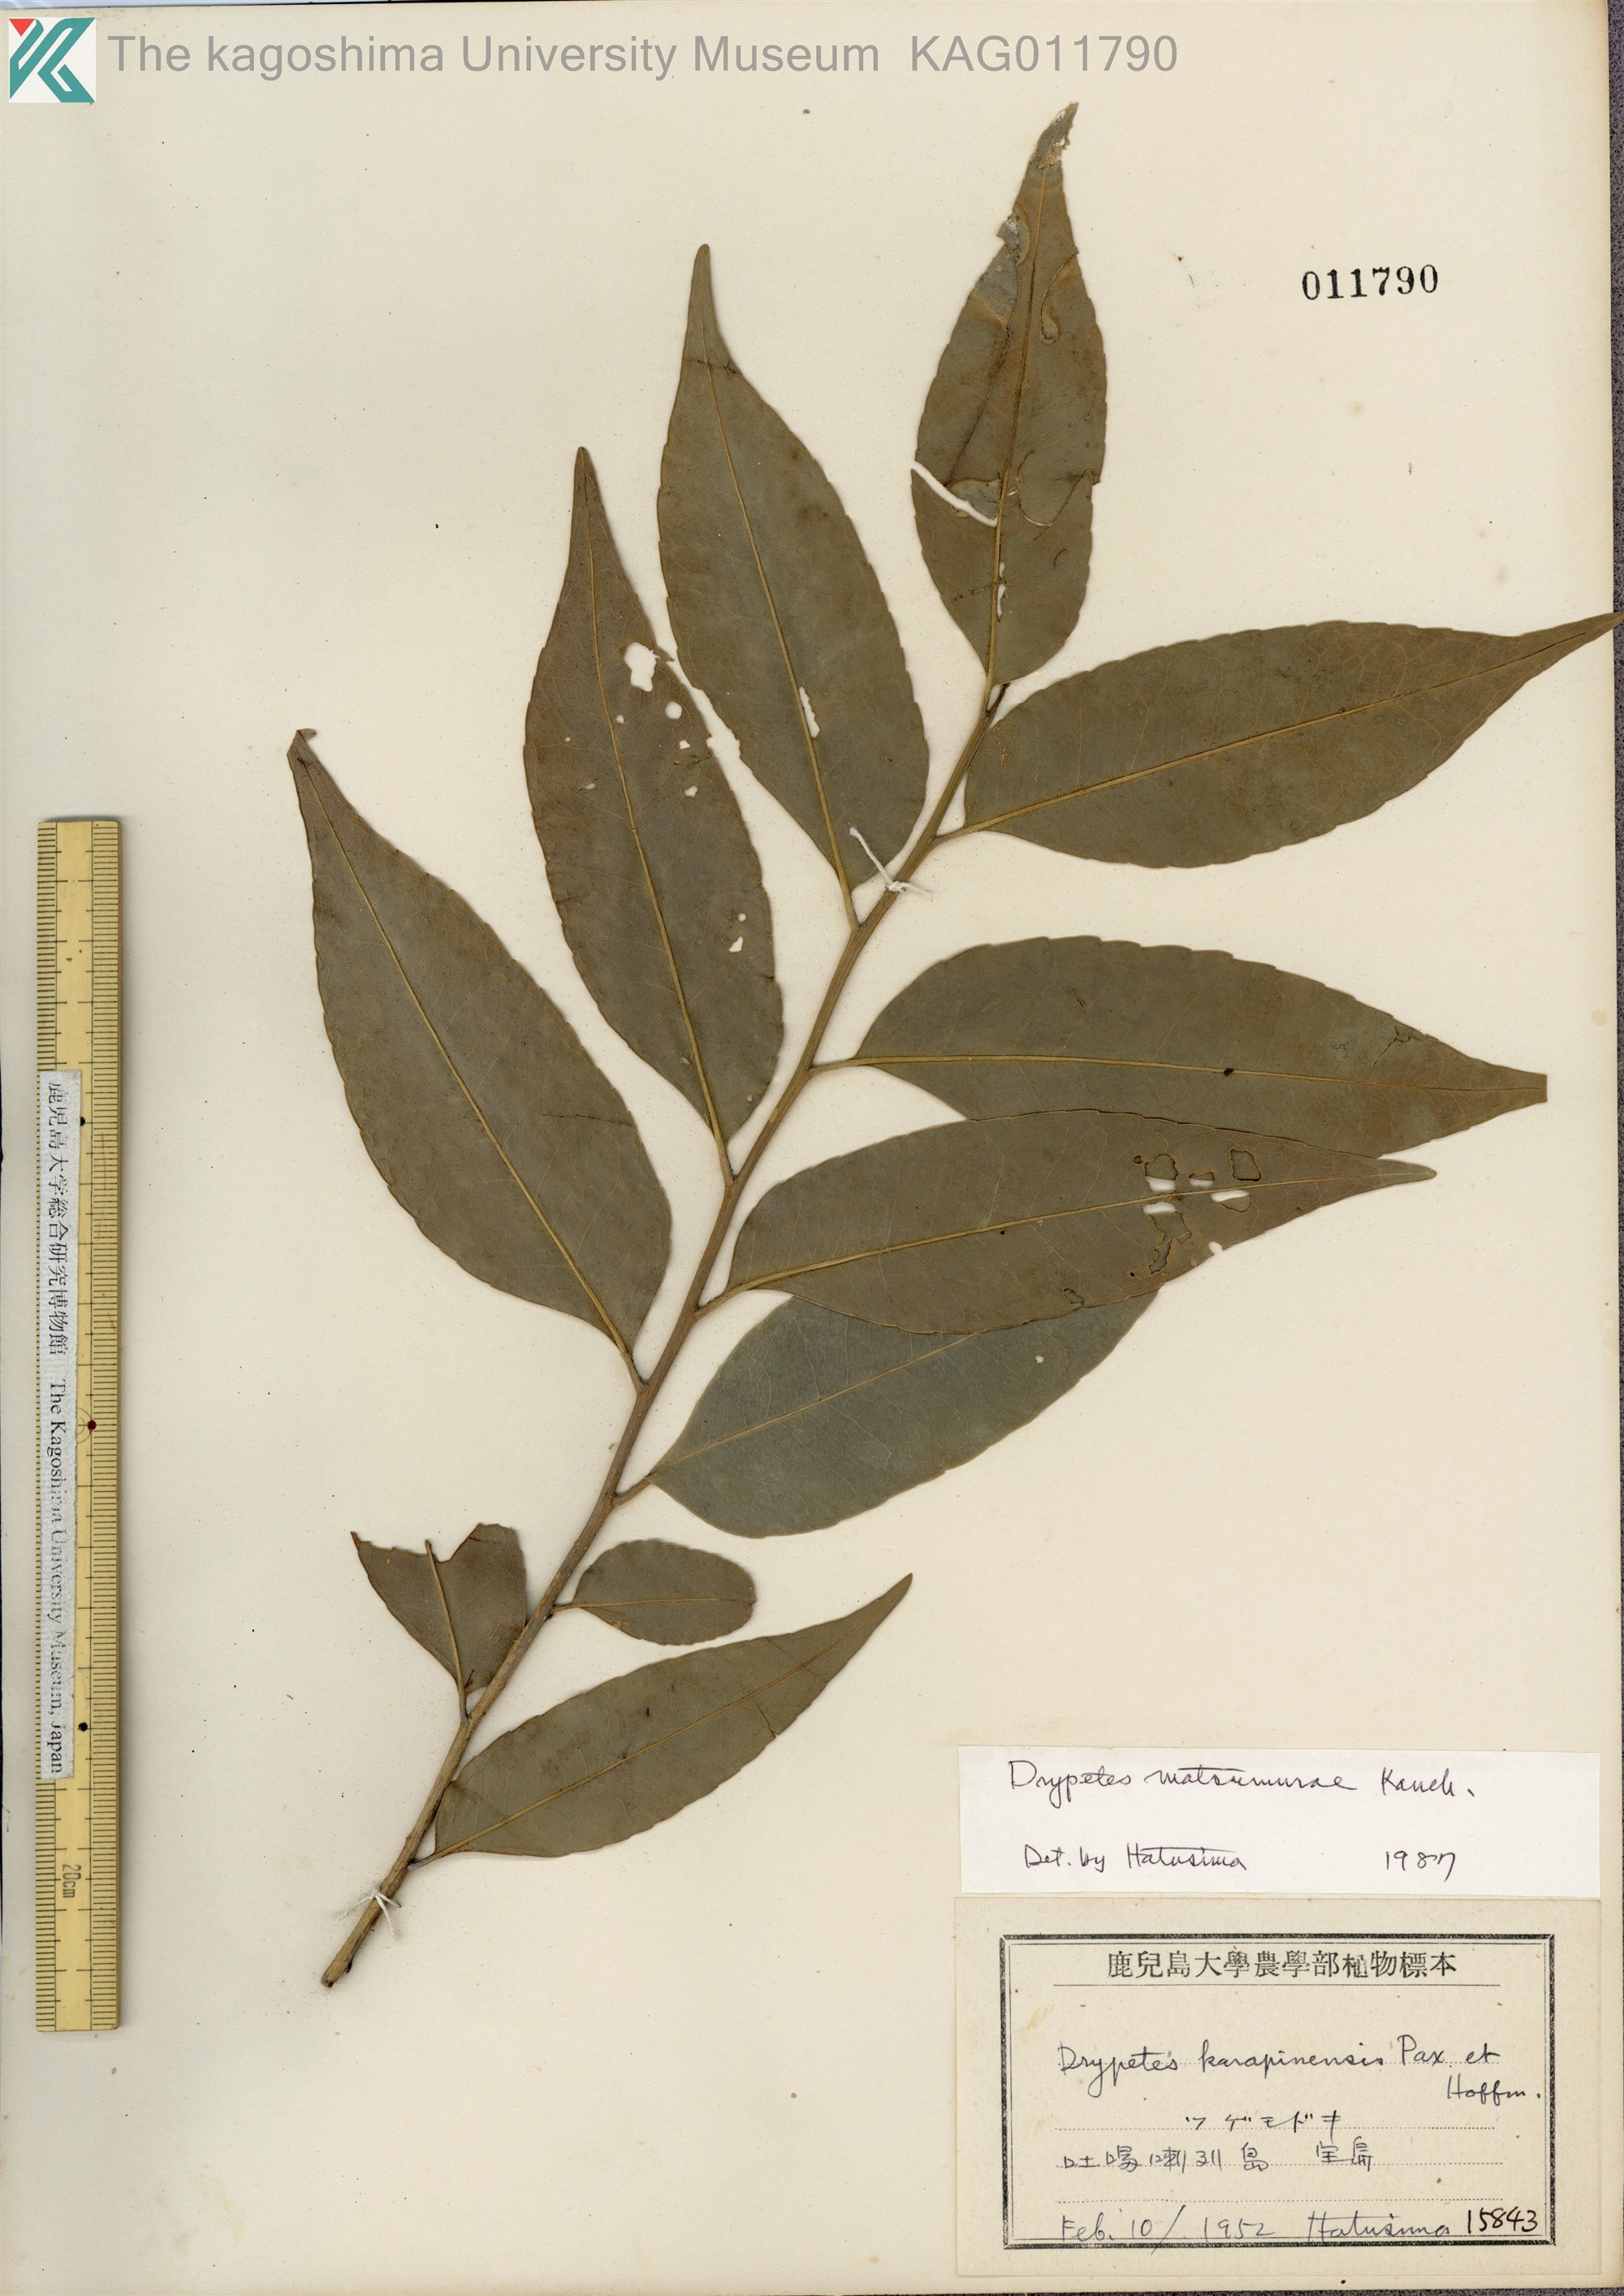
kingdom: Plantae
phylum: Tracheophyta
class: Magnoliopsida
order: Malpighiales
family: Putranjivaceae
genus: Putranjiva
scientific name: Putranjiva matsumurae
